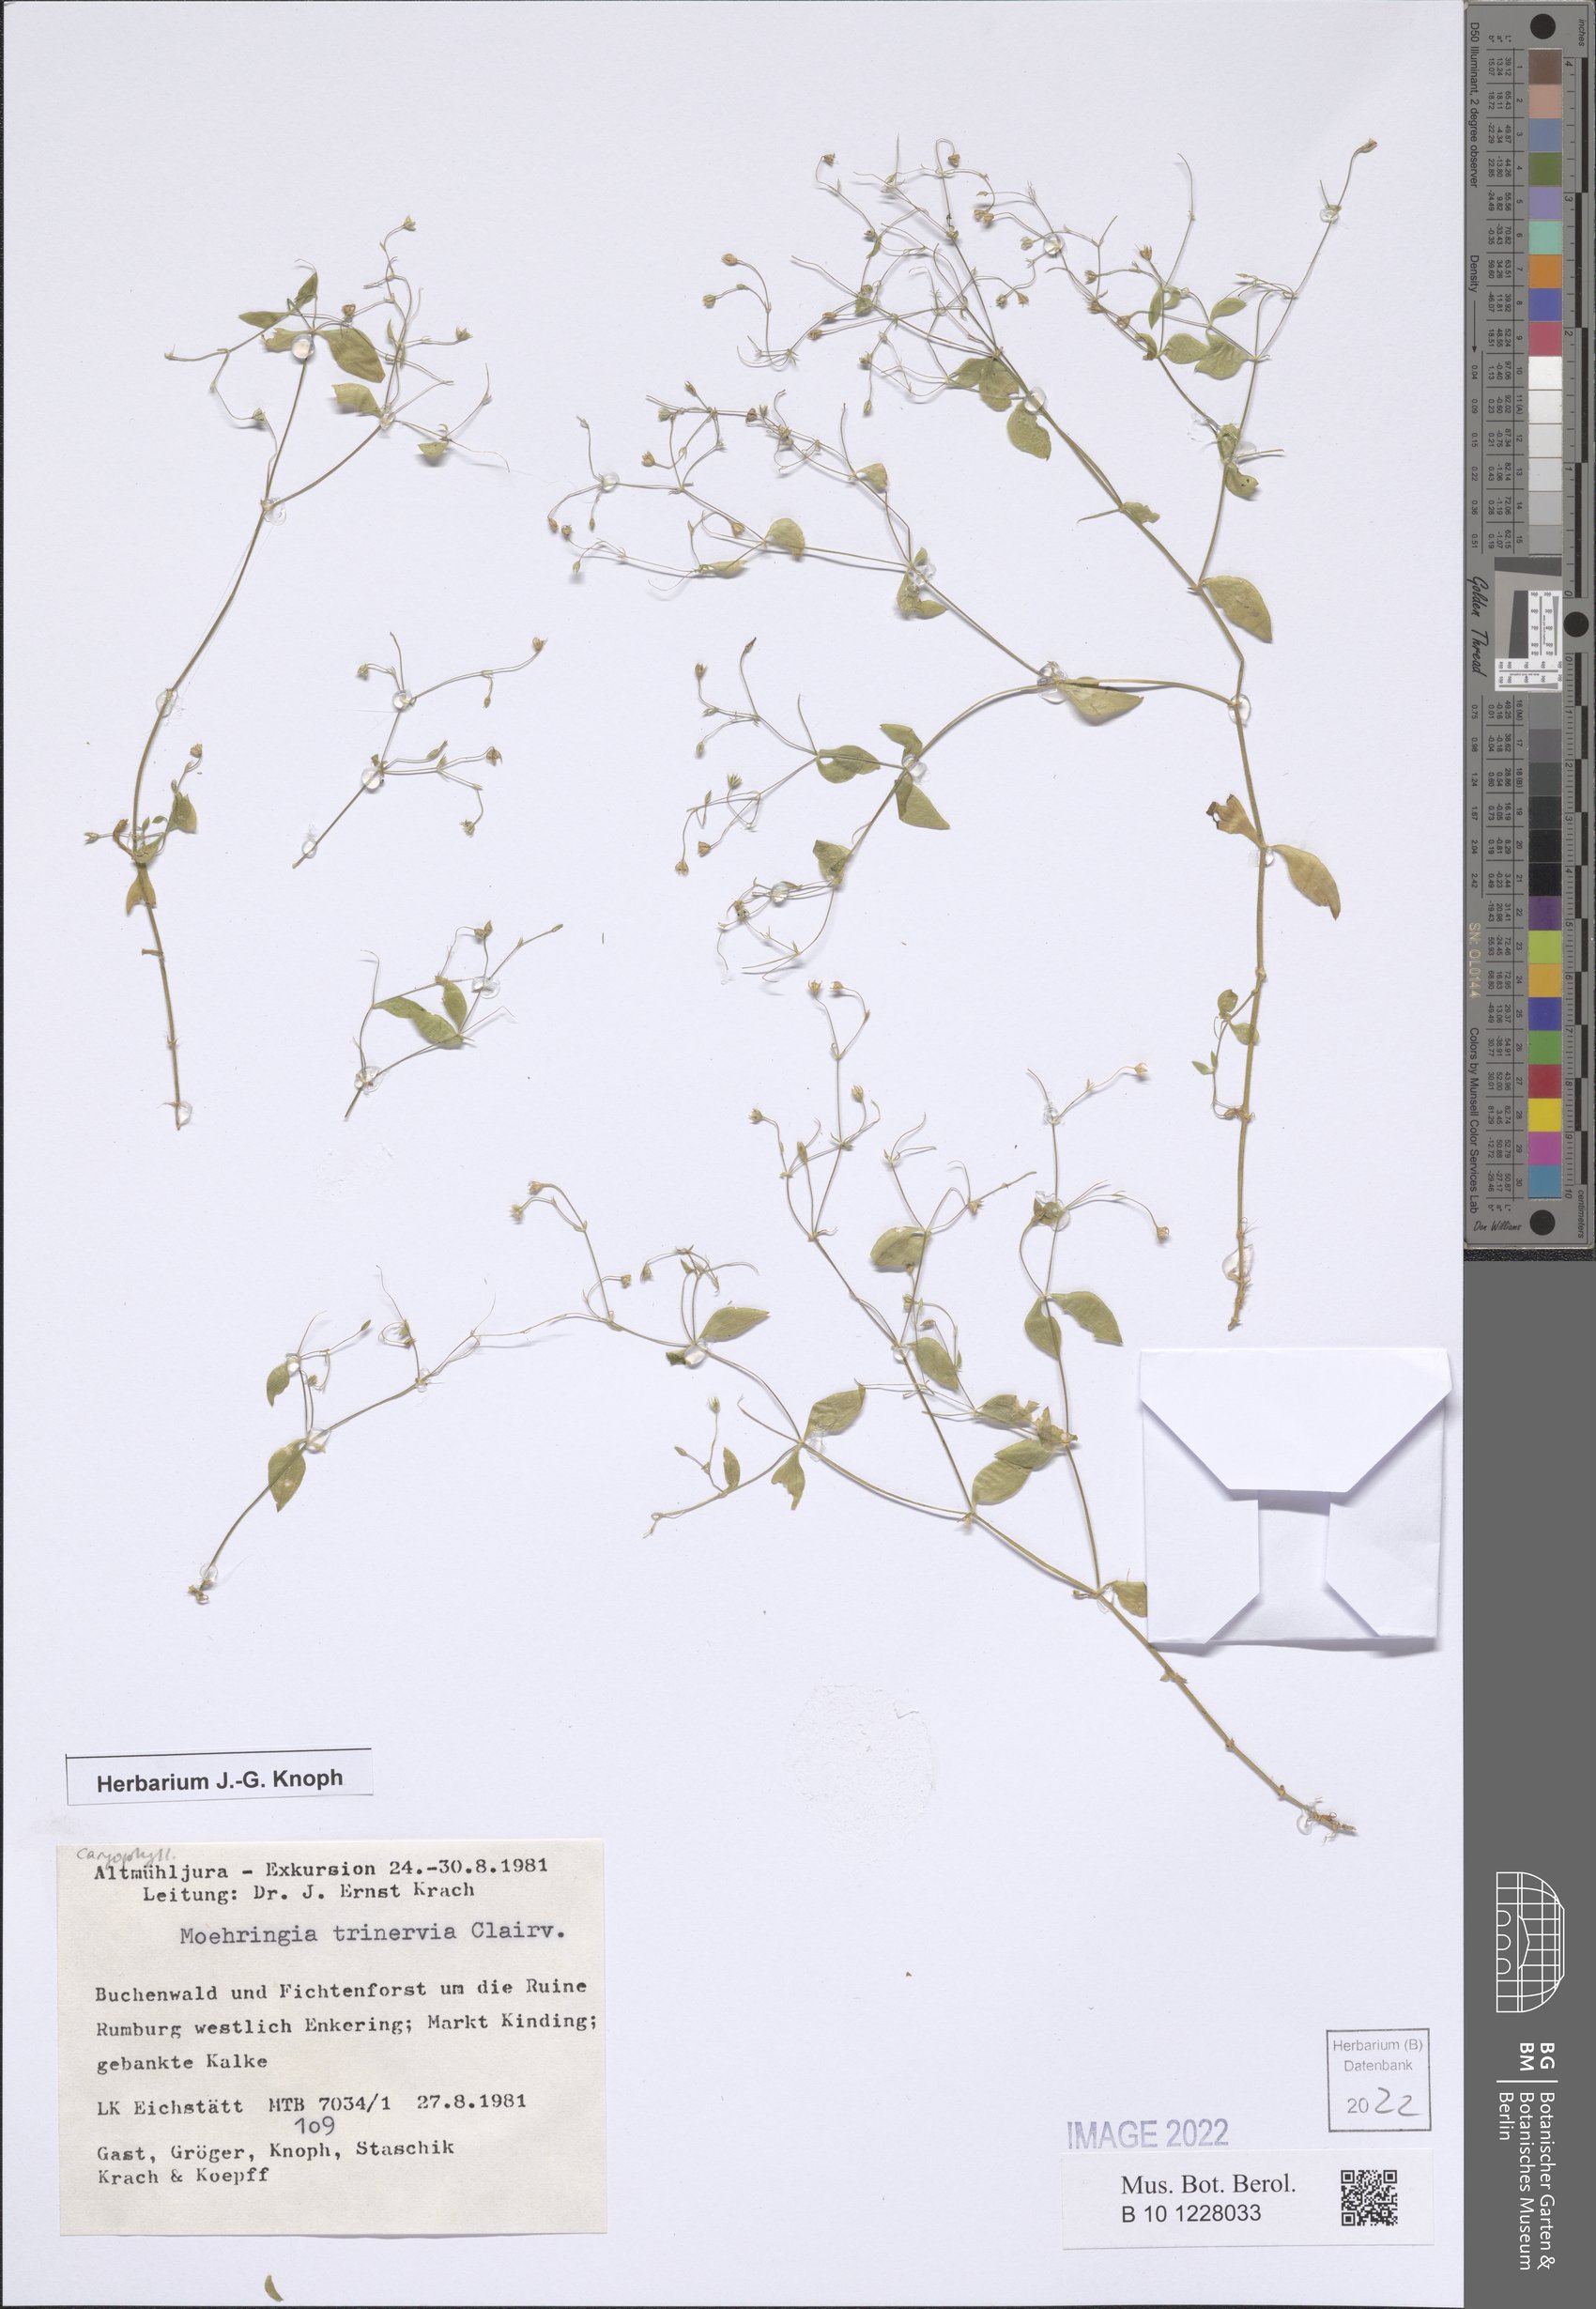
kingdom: Plantae
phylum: Tracheophyta
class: Magnoliopsida
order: Caryophyllales
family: Caryophyllaceae
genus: Moehringia
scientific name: Moehringia trinervia
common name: Three-nerved sandwort
